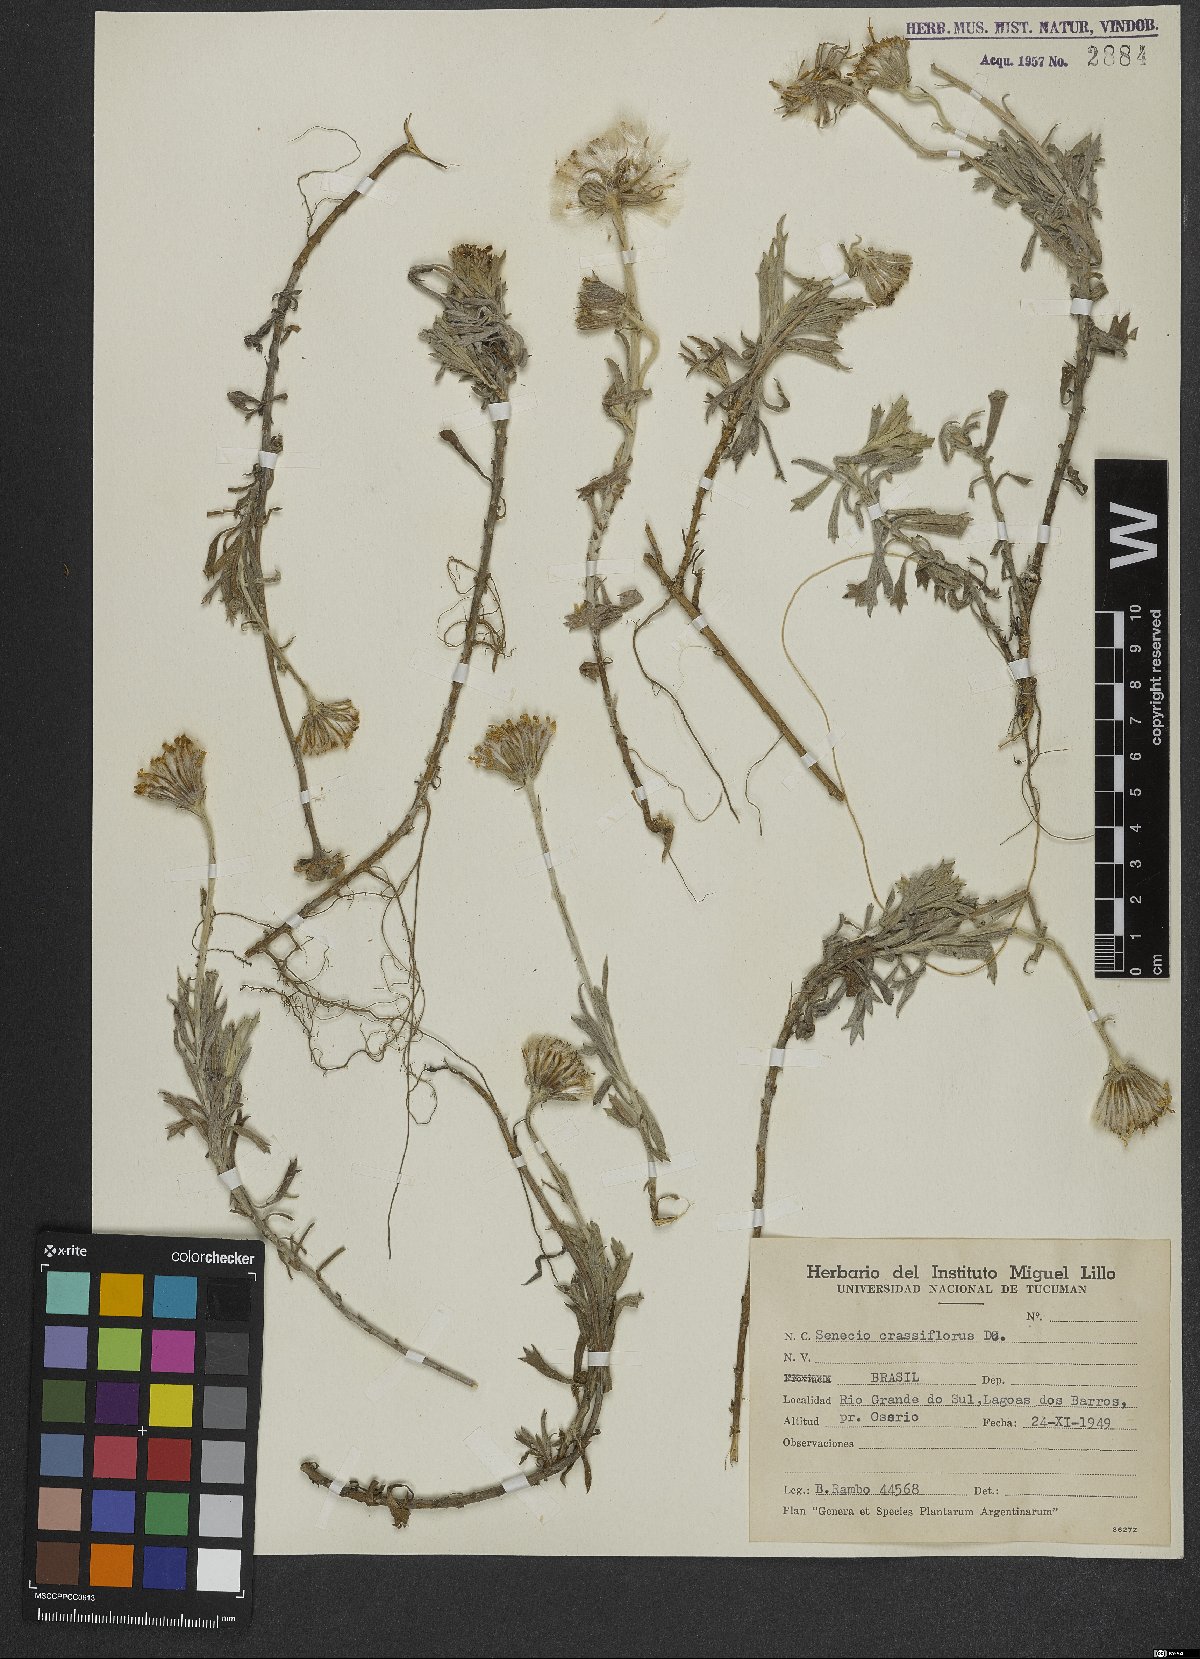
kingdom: Plantae
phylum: Tracheophyta
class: Magnoliopsida
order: Asterales
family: Asteraceae
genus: Senecio
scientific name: Senecio crassiflorus
